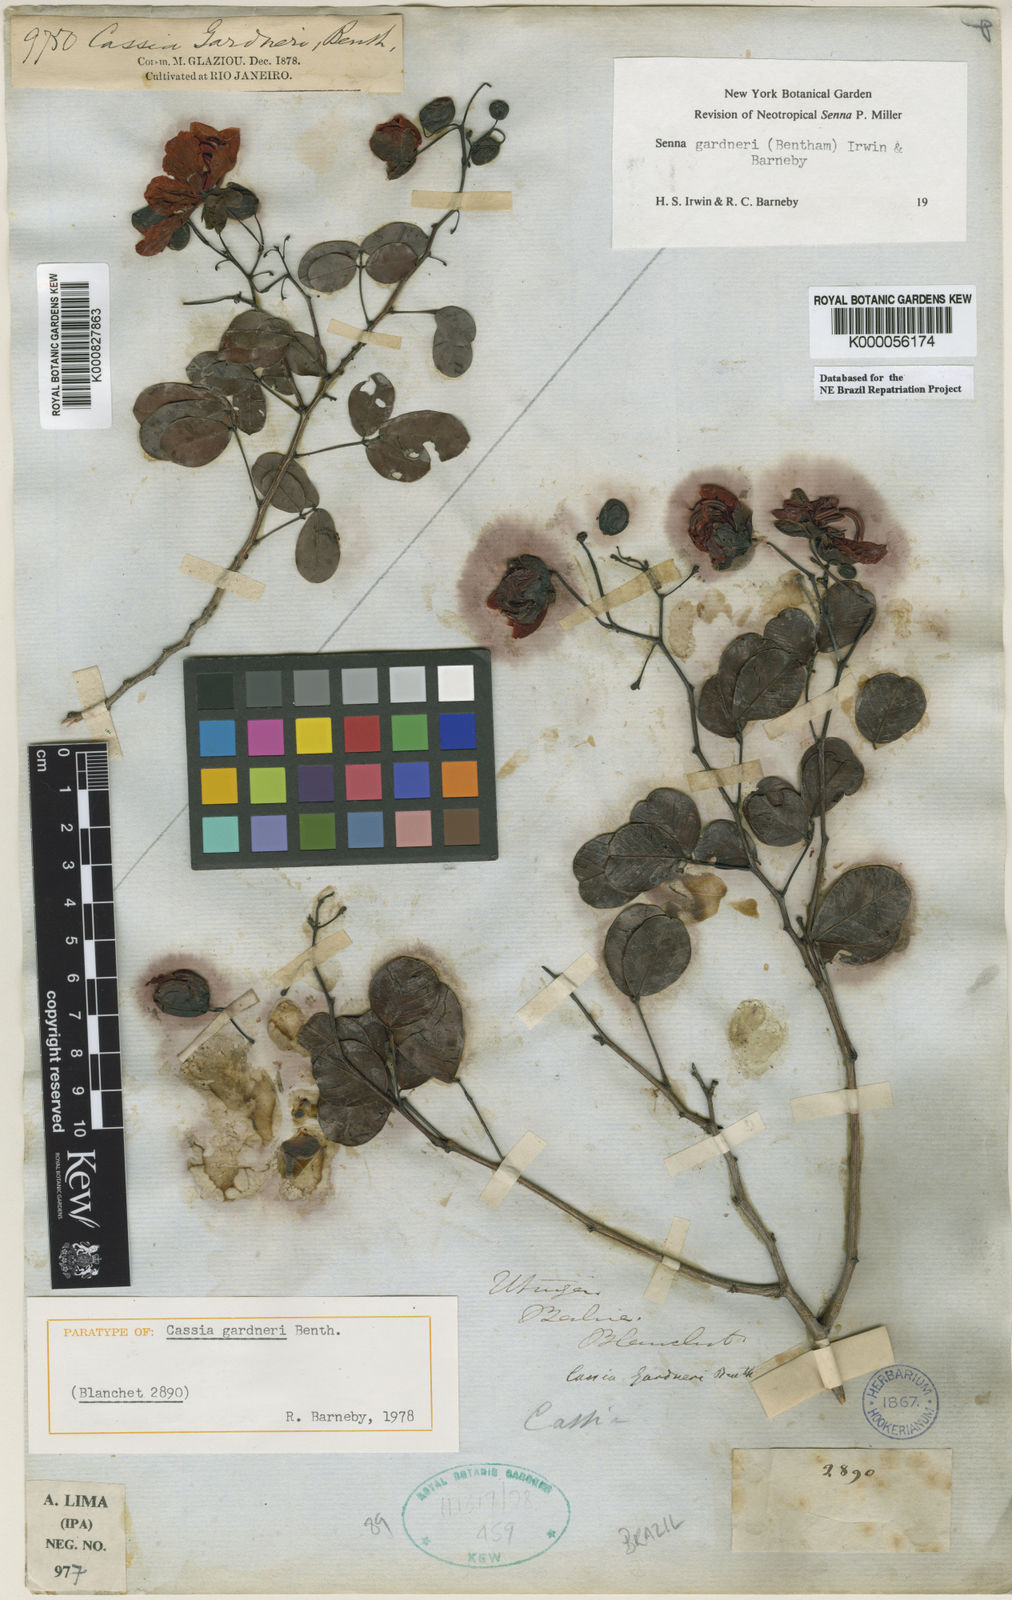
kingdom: Plantae
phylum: Tracheophyta
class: Magnoliopsida
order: Fabales
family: Fabaceae
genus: Senna
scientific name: Senna gardneri
